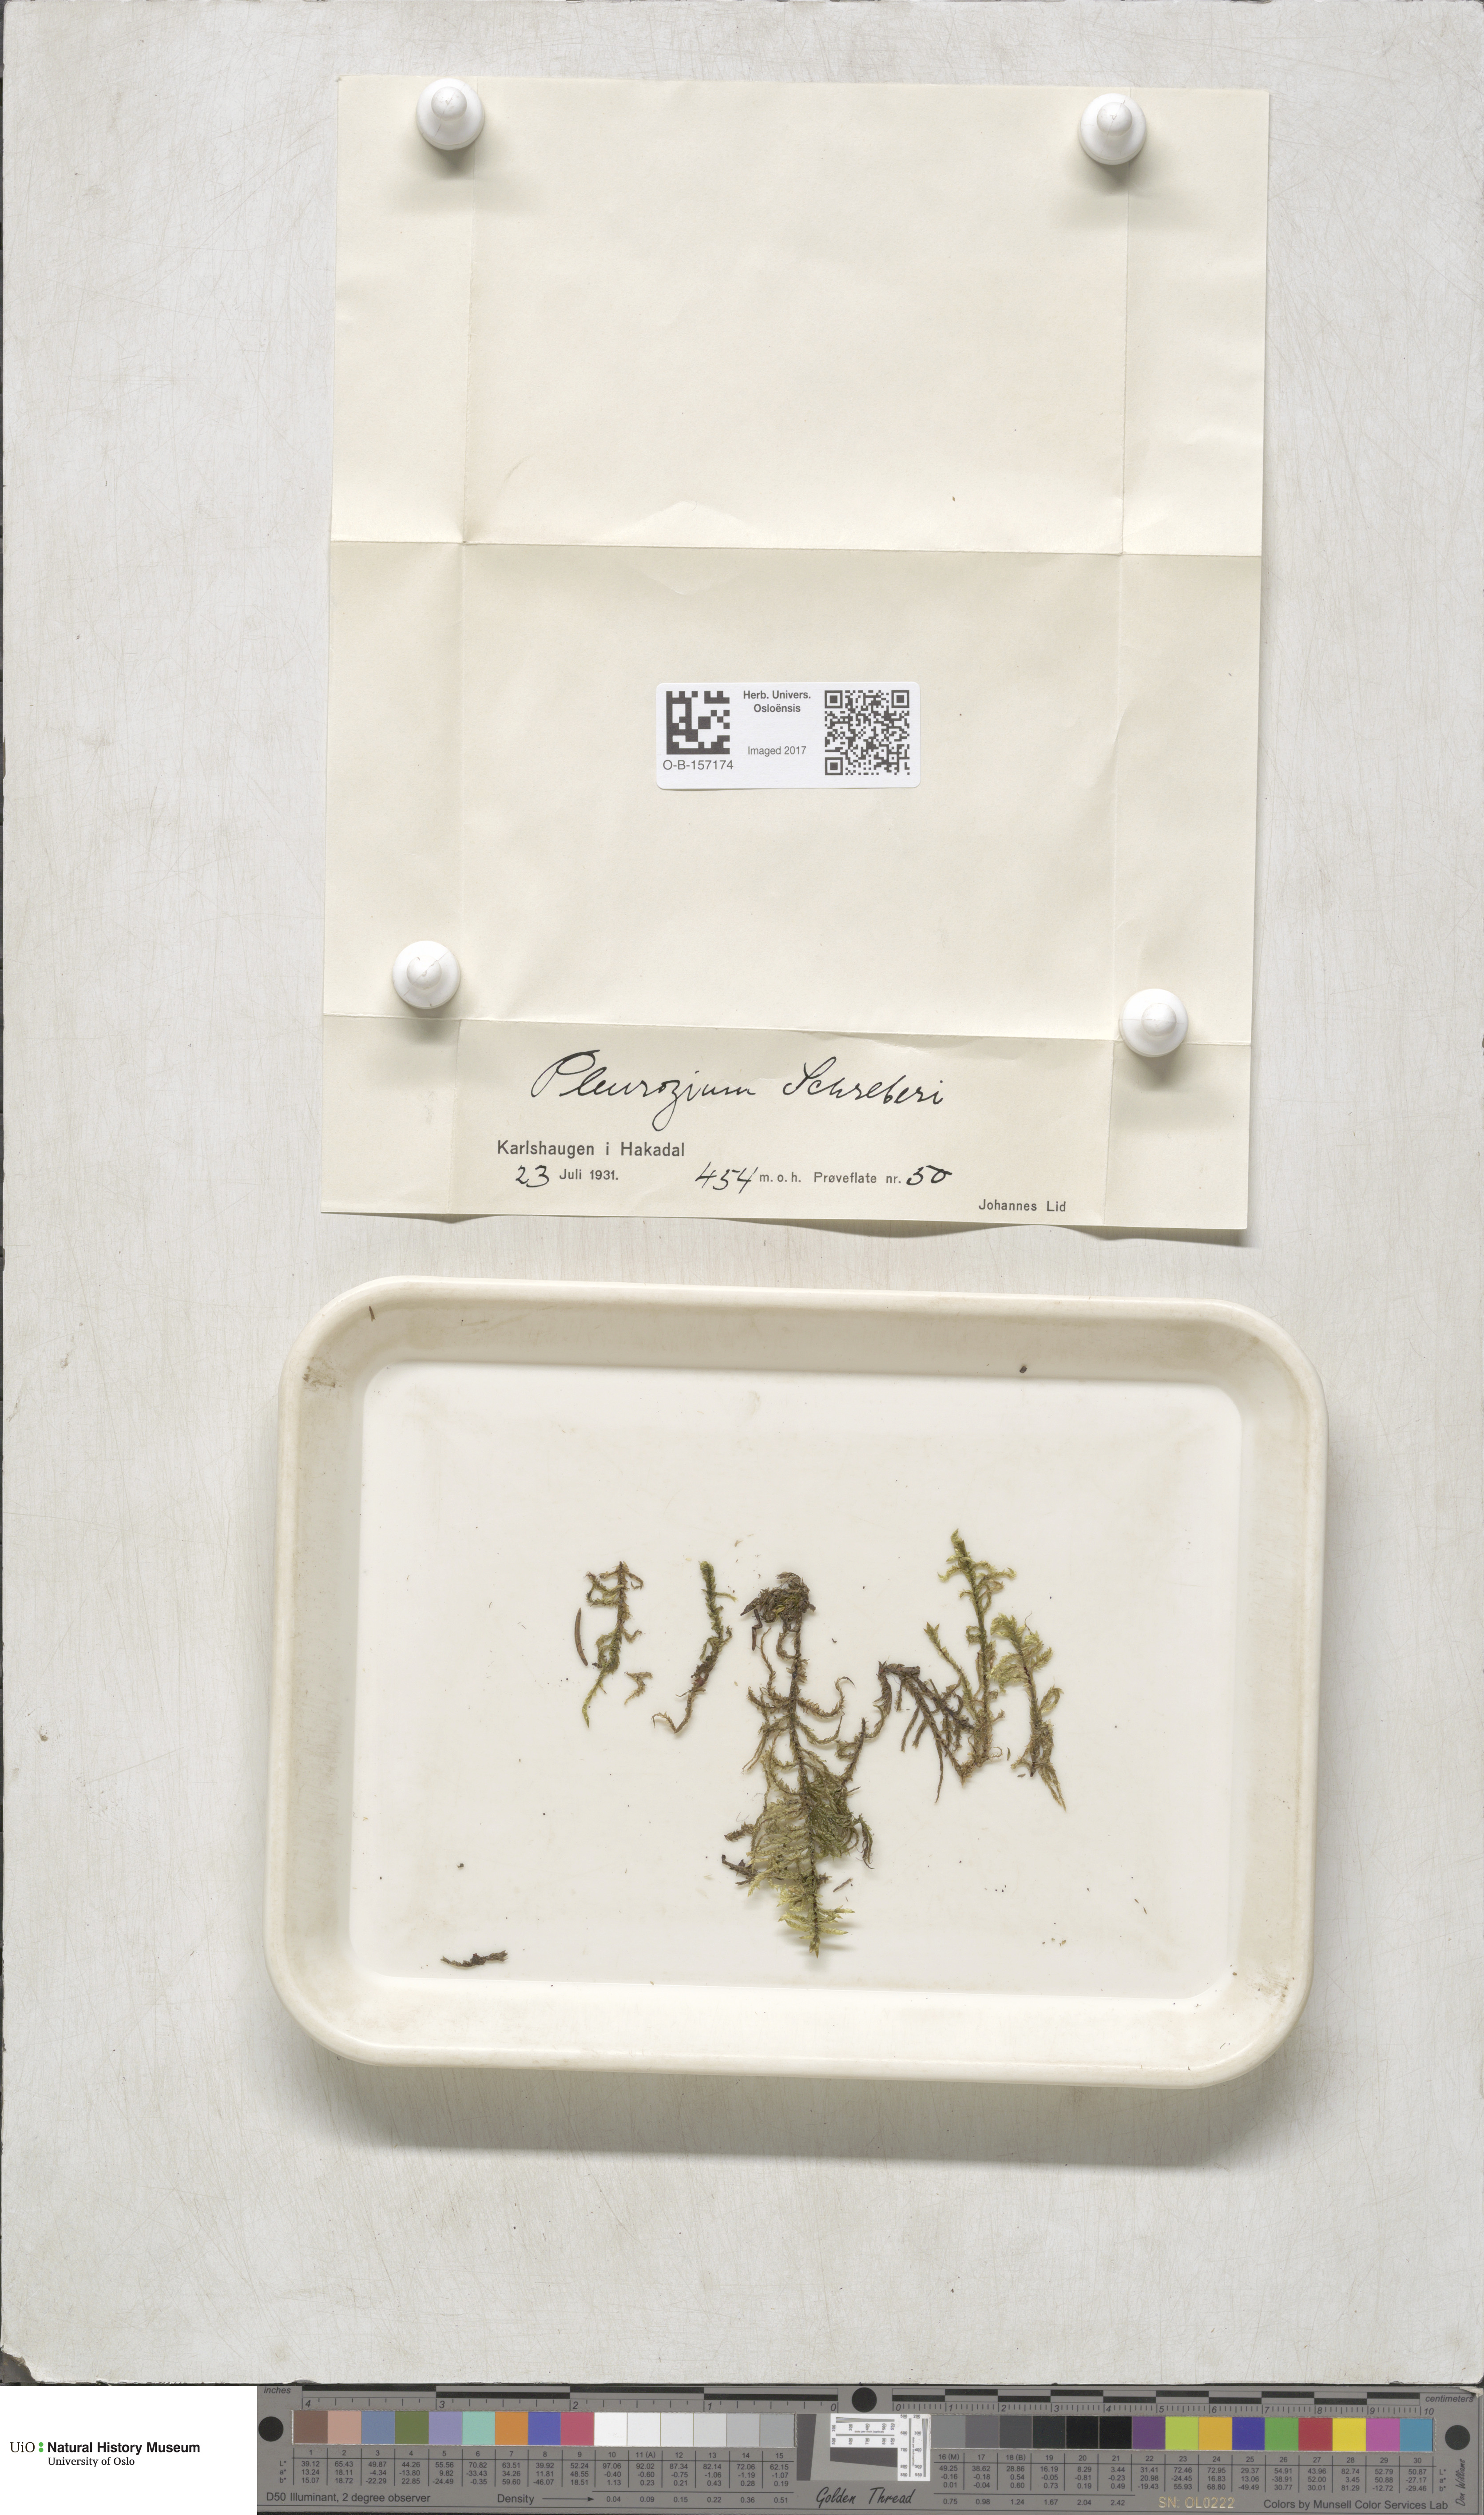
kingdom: Plantae
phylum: Bryophyta
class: Bryopsida
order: Hypnales
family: Hylocomiaceae
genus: Pleurozium
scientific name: Pleurozium schreberi
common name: Red-stemmed feather moss
